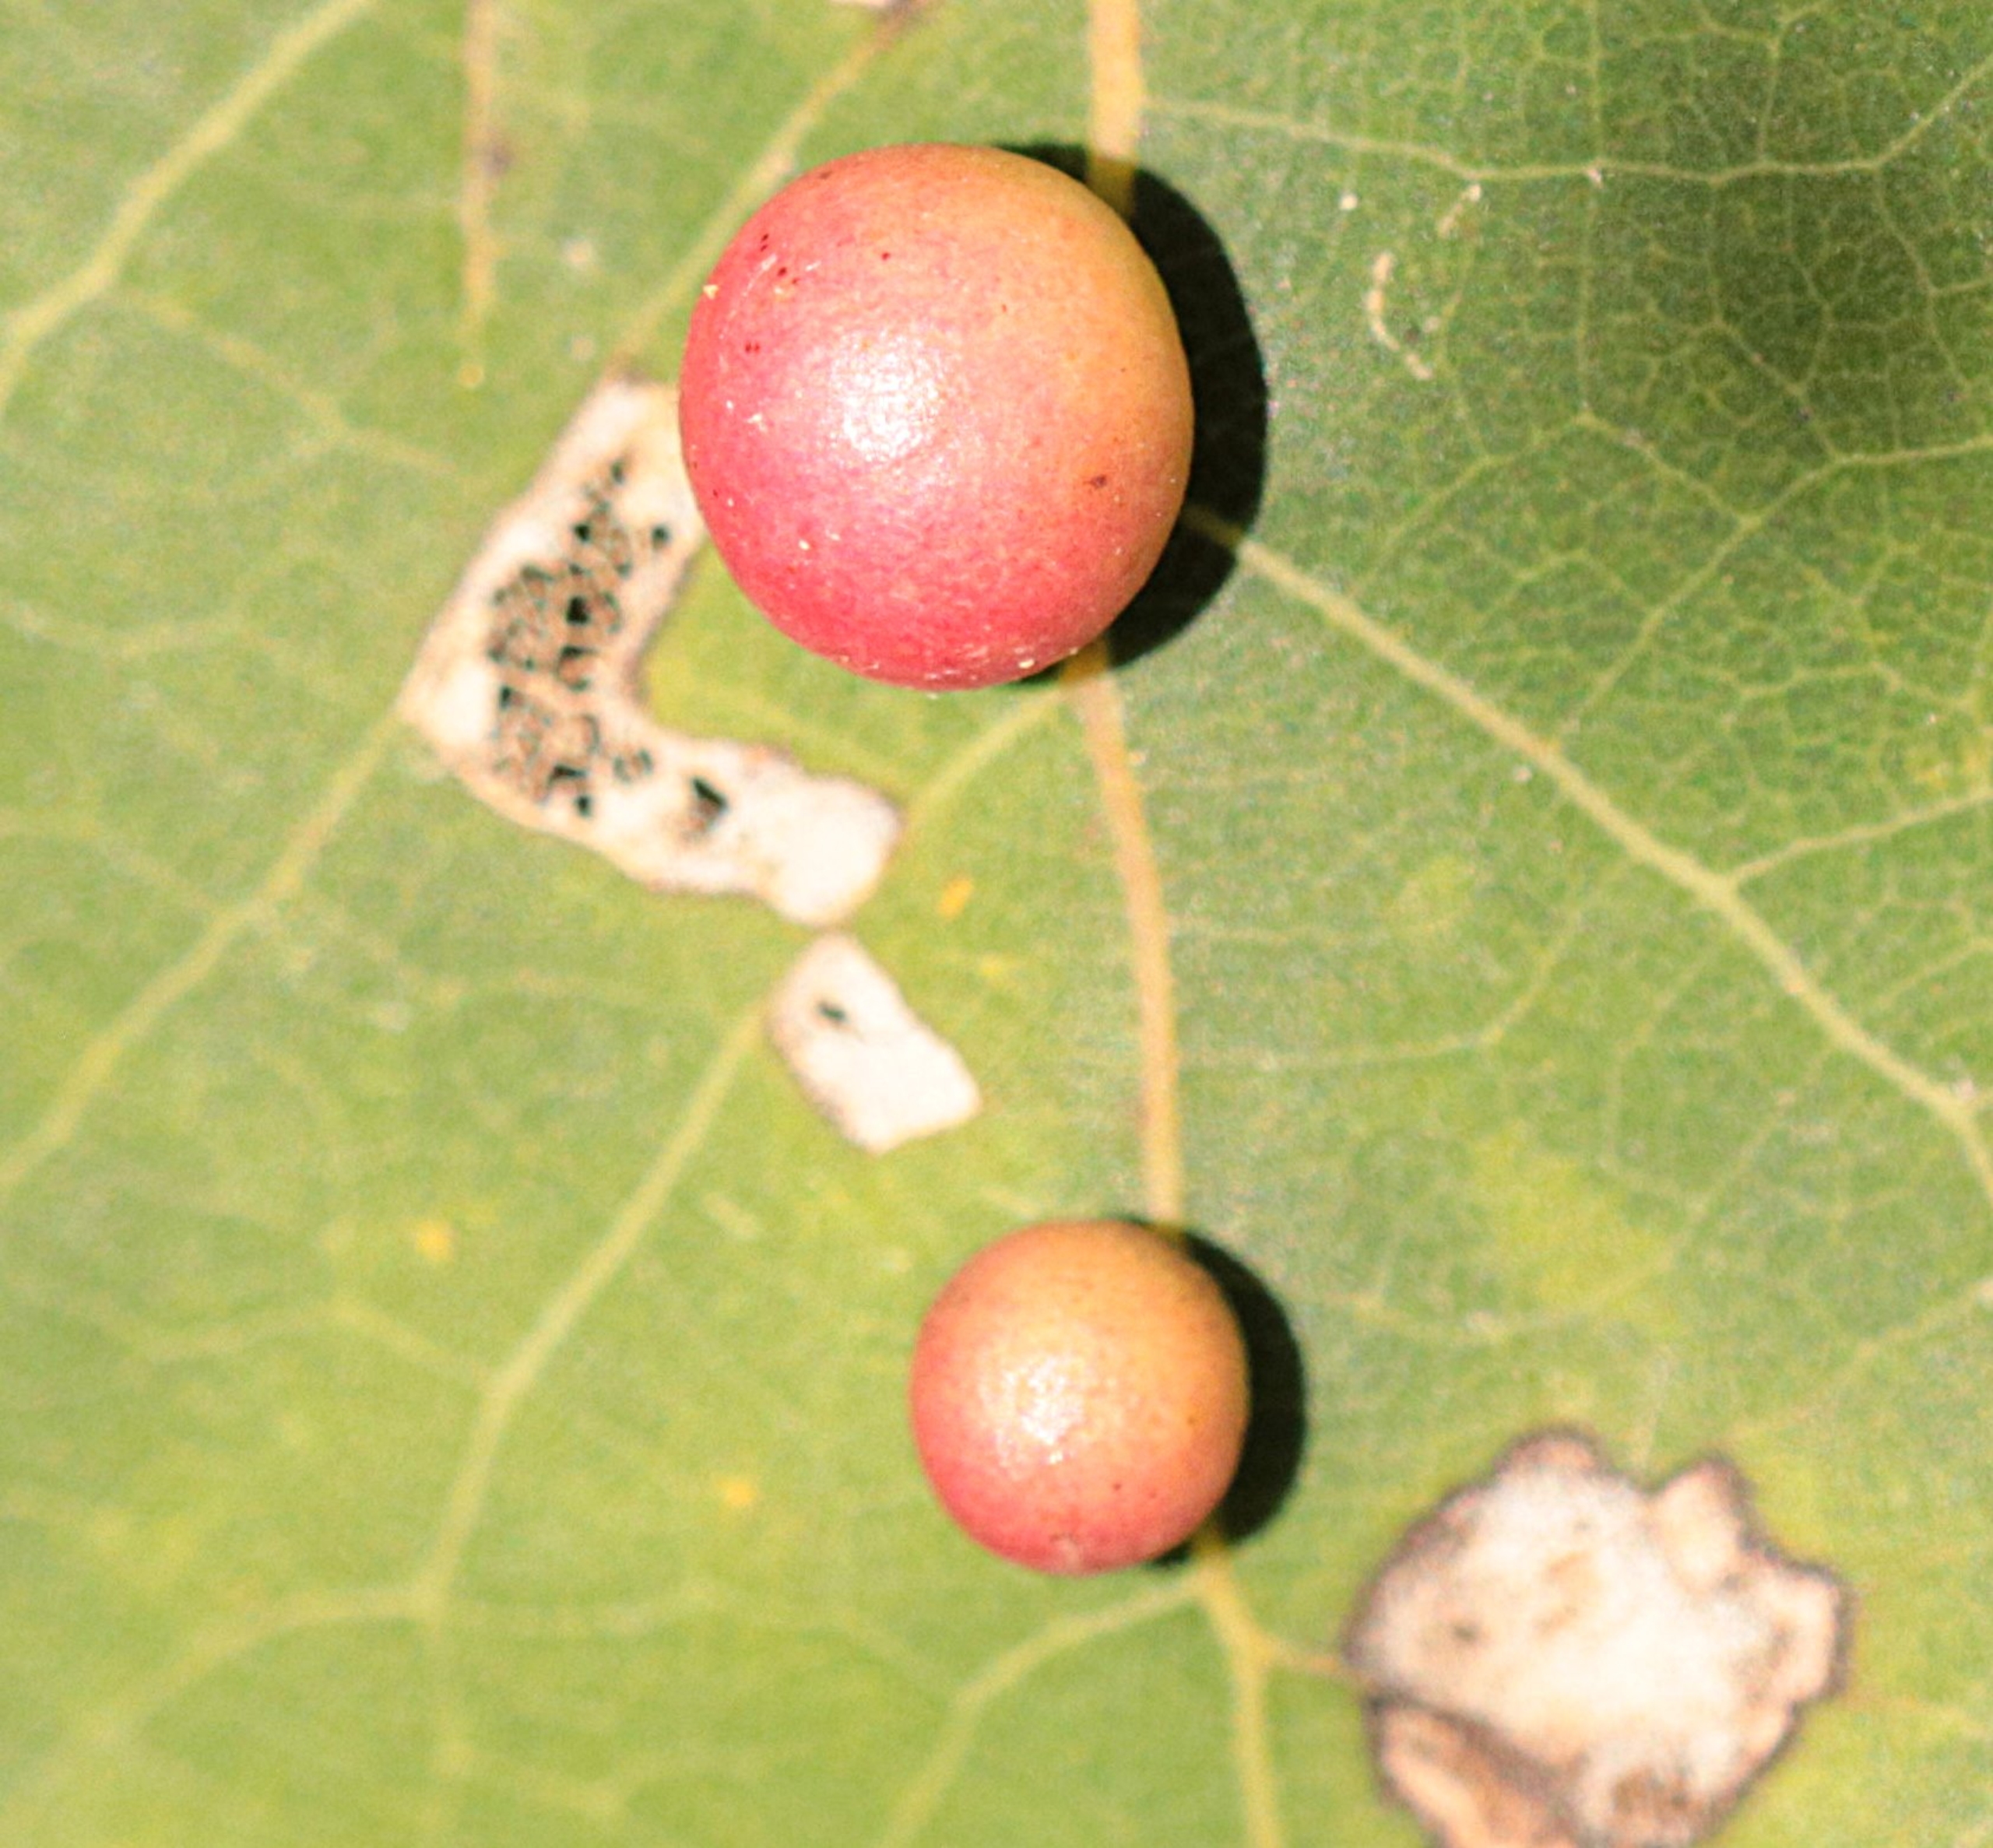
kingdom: Animalia
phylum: Arthropoda
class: Insecta
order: Diptera
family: Cecidomyiidae
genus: Harmandiola
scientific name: Harmandiola tremulae
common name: Aspekuglegalmyg
